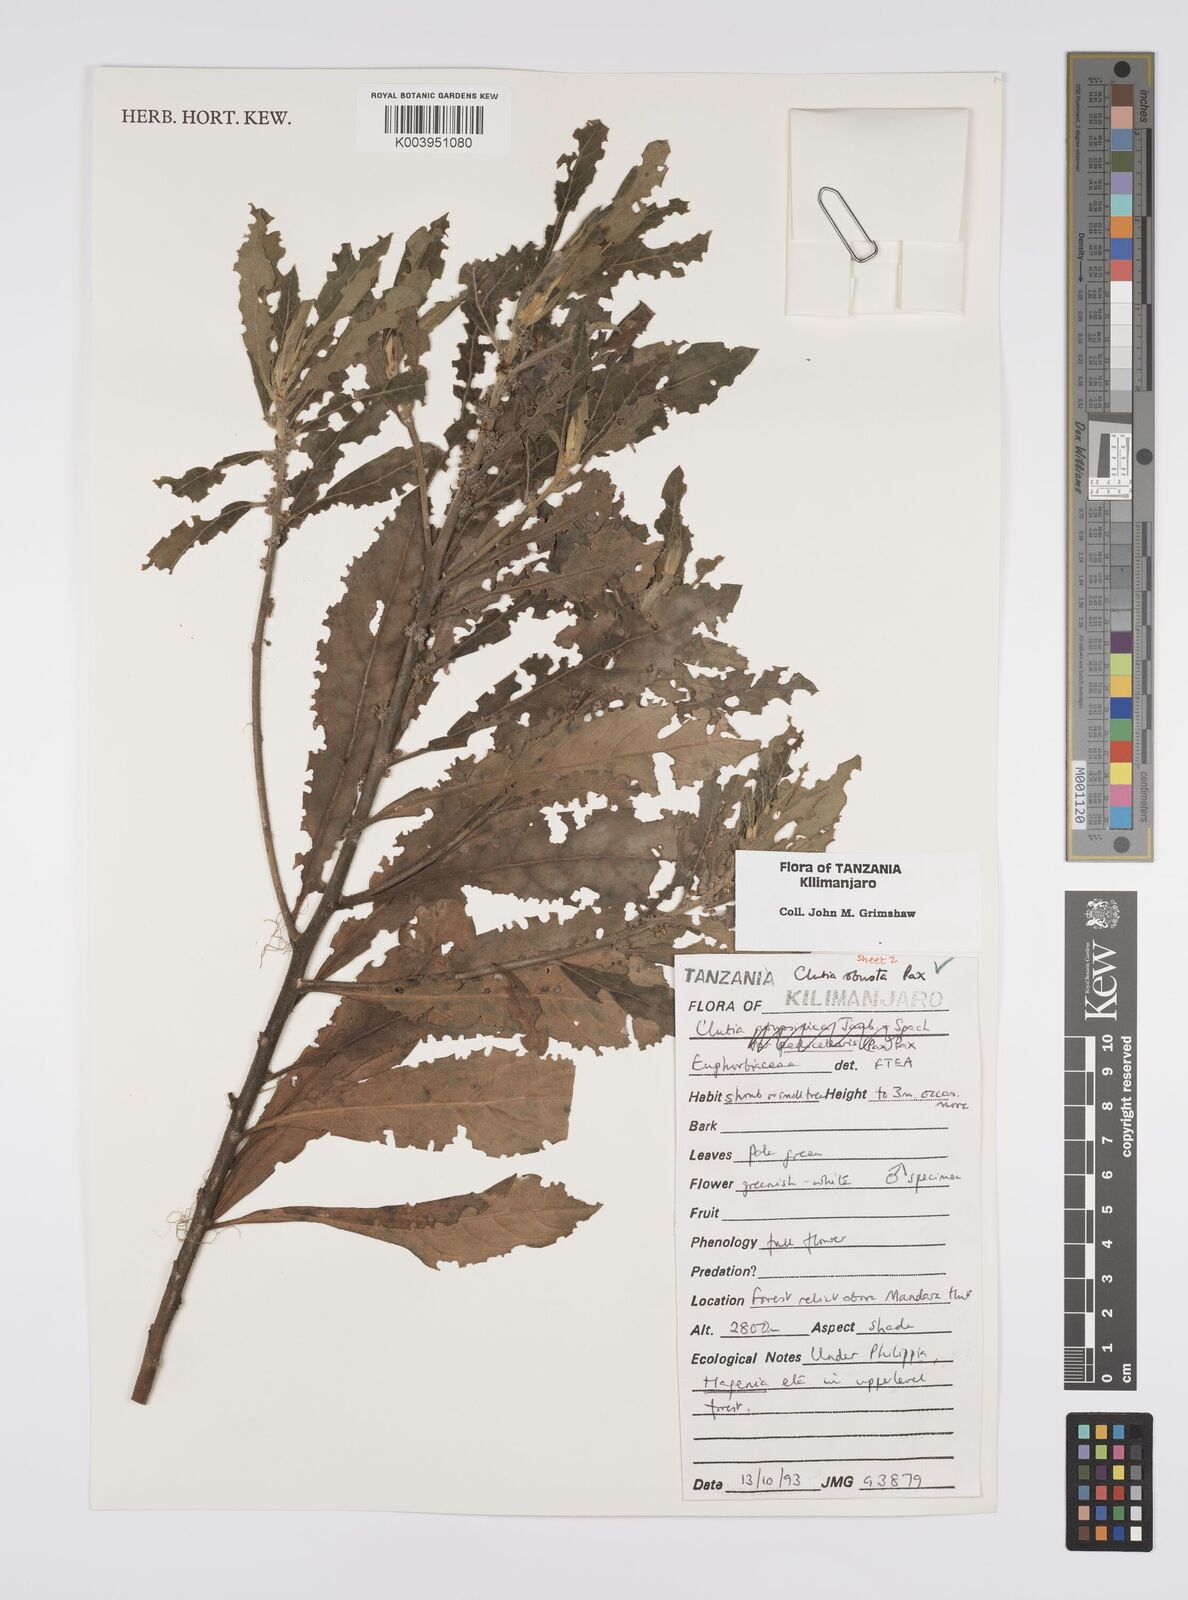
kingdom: Plantae
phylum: Tracheophyta
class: Magnoliopsida
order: Malpighiales
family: Peraceae
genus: Clutia
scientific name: Clutia kilimandscharica
